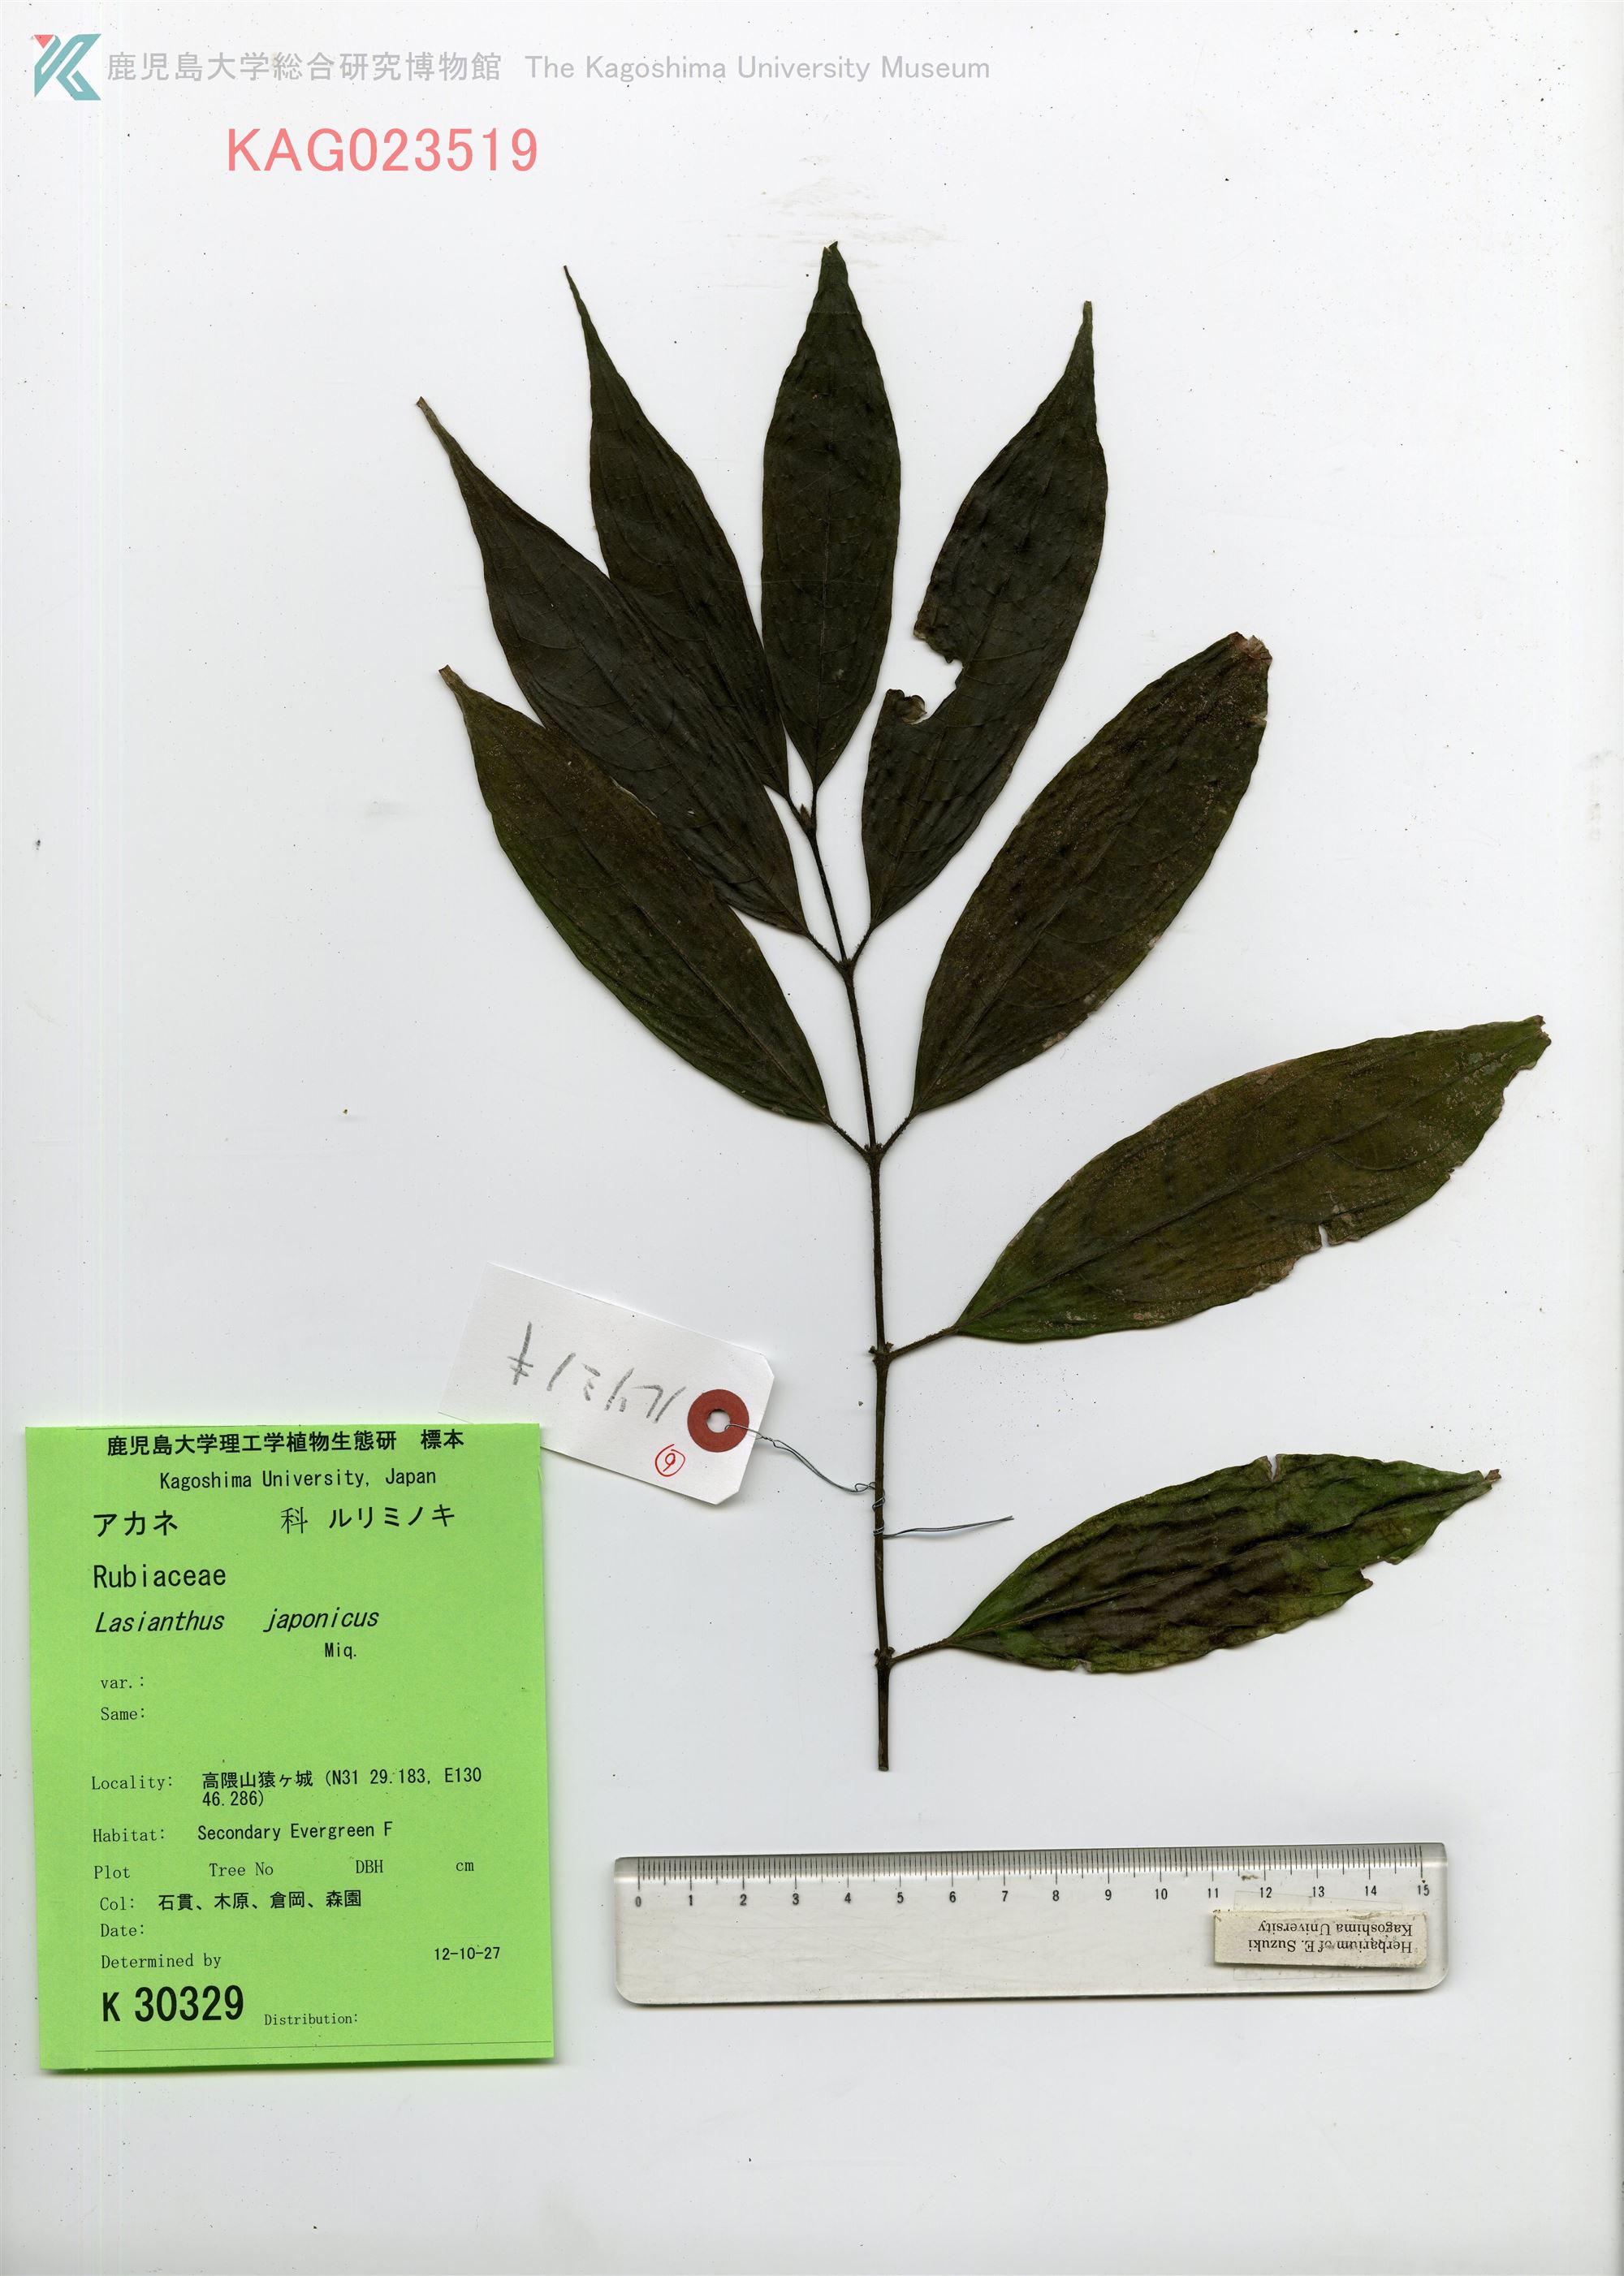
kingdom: Plantae
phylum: Tracheophyta
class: Magnoliopsida
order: Gentianales
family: Rubiaceae
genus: Lasianthus
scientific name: Lasianthus japonicus
